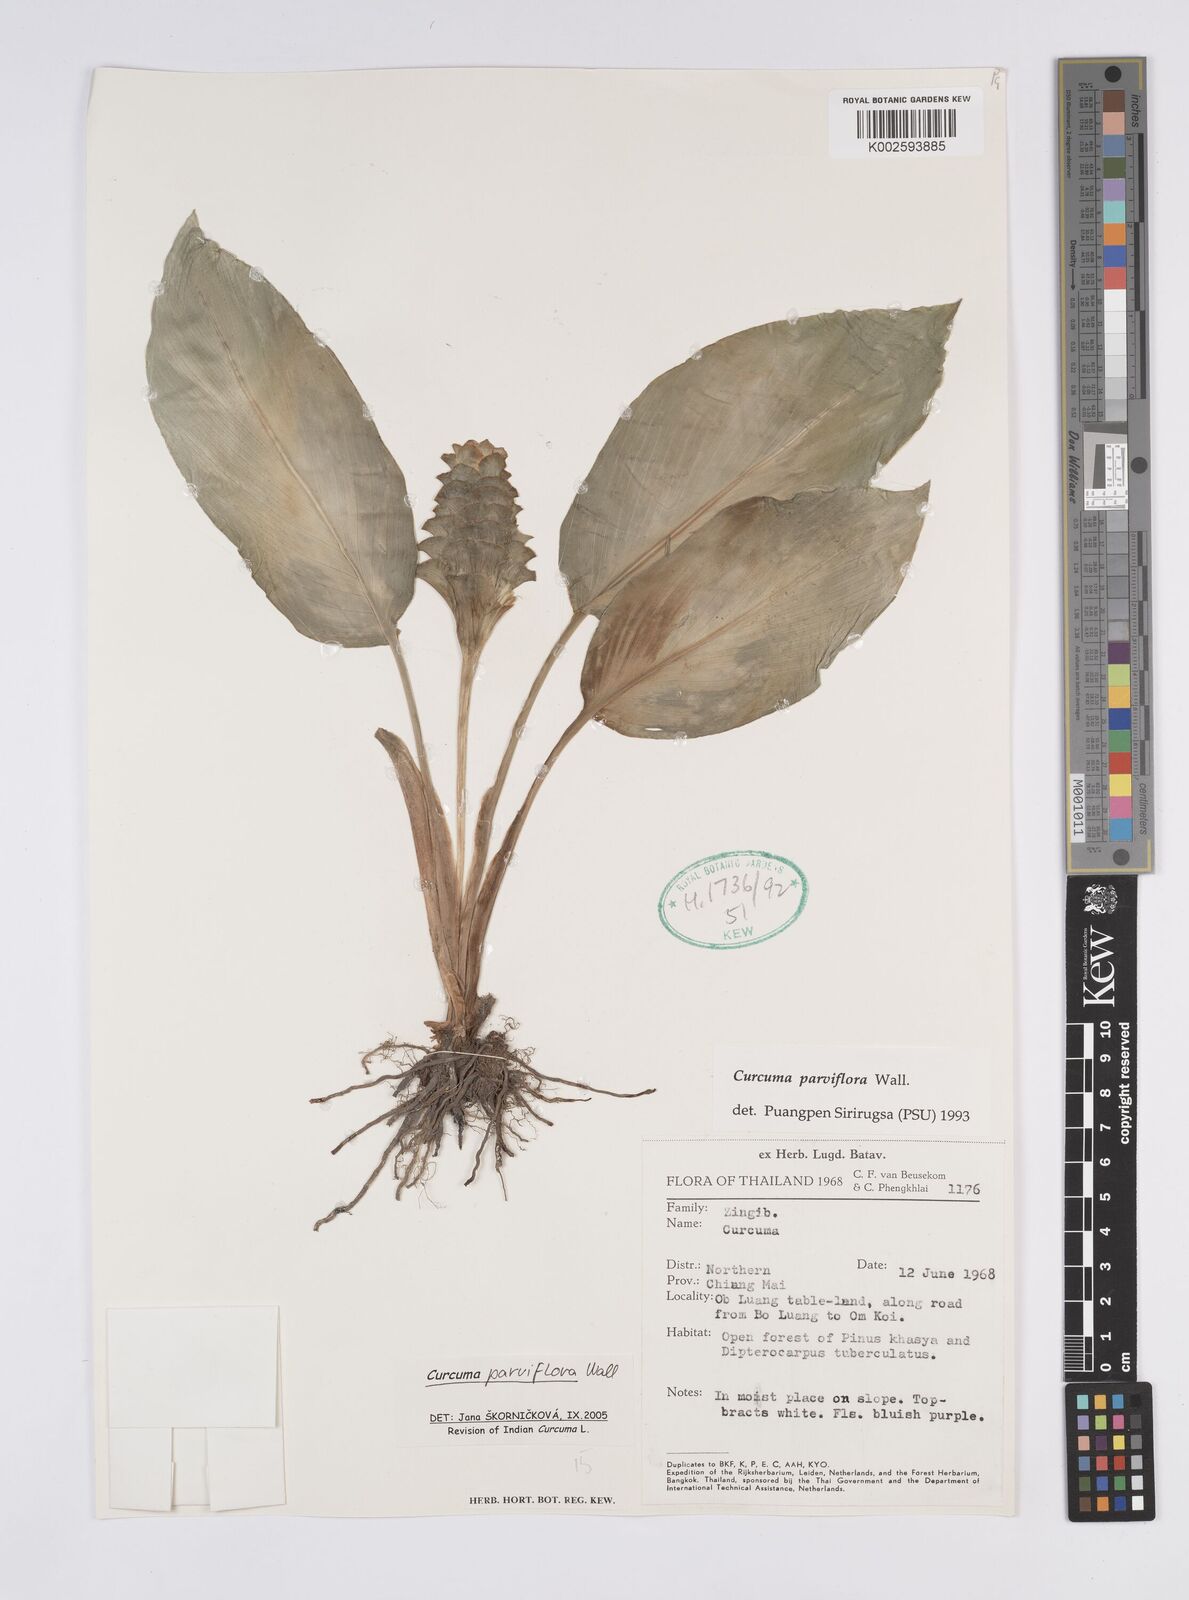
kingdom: Plantae
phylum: Tracheophyta
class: Liliopsida
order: Zingiberales
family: Zingiberaceae
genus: Curcuma
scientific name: Curcuma parviflora
